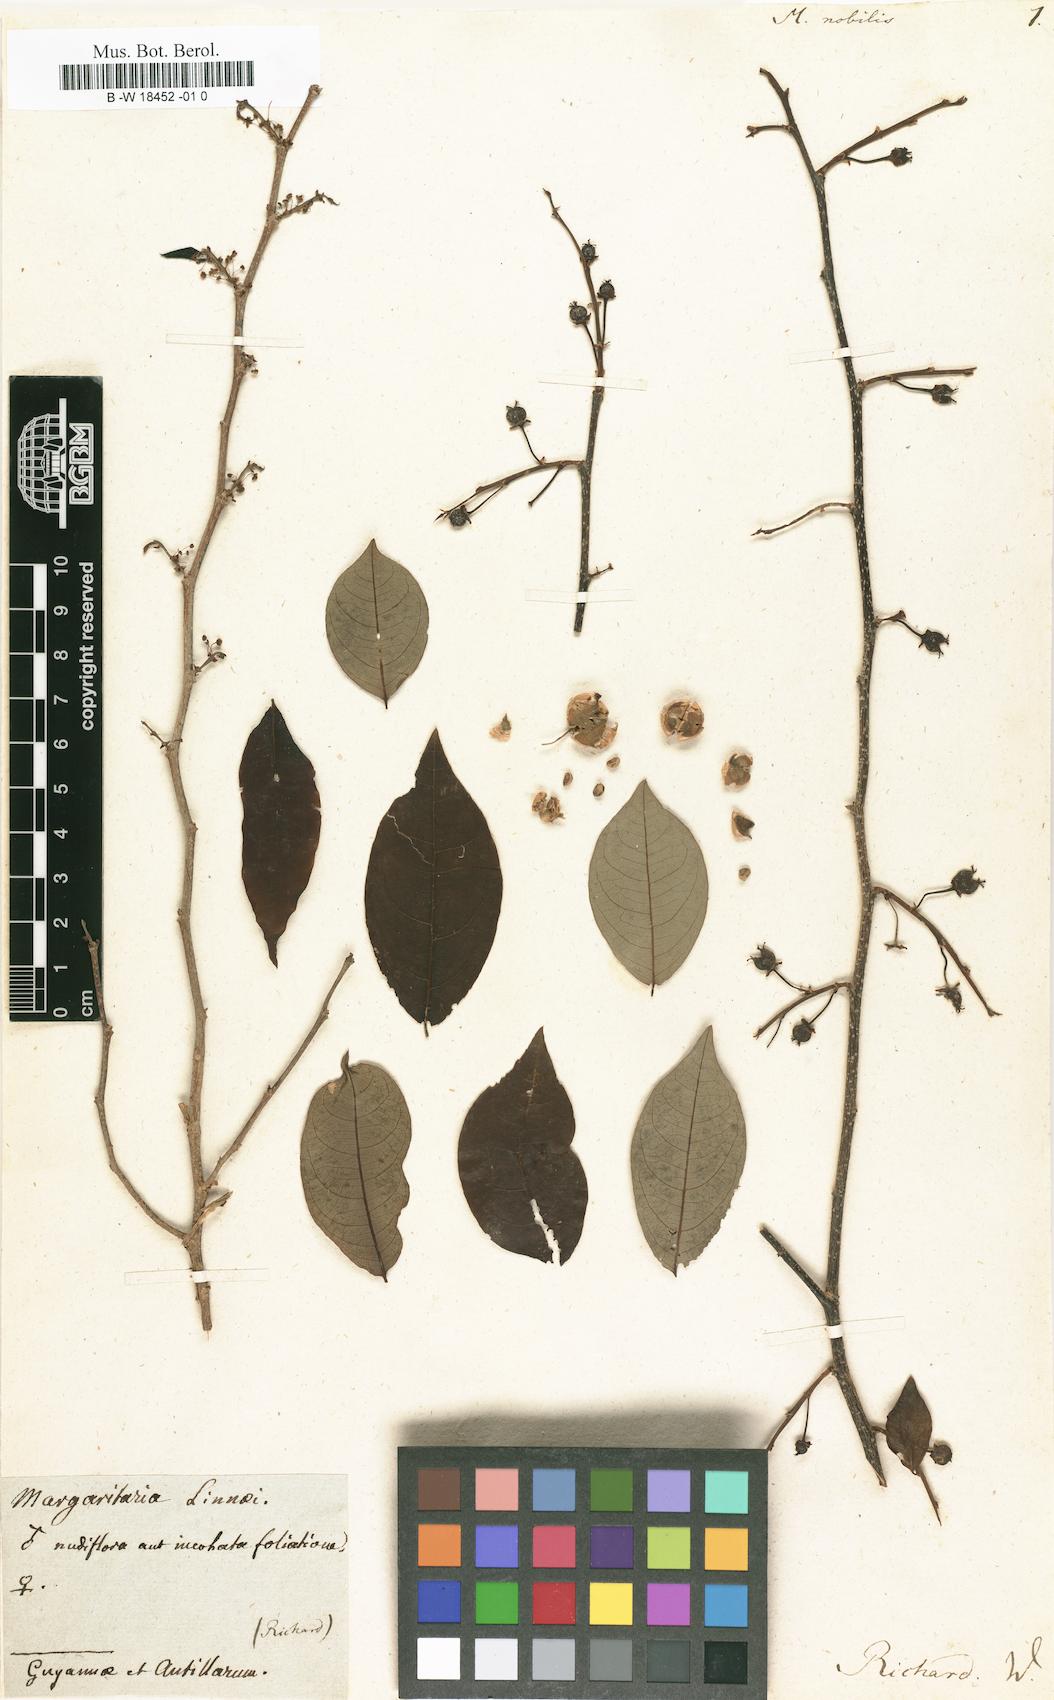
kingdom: Plantae
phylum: Tracheophyta
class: Magnoliopsida
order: Malpighiales
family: Phyllanthaceae
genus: Margaritaria
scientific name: Margaritaria nobilis
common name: Goose berry
